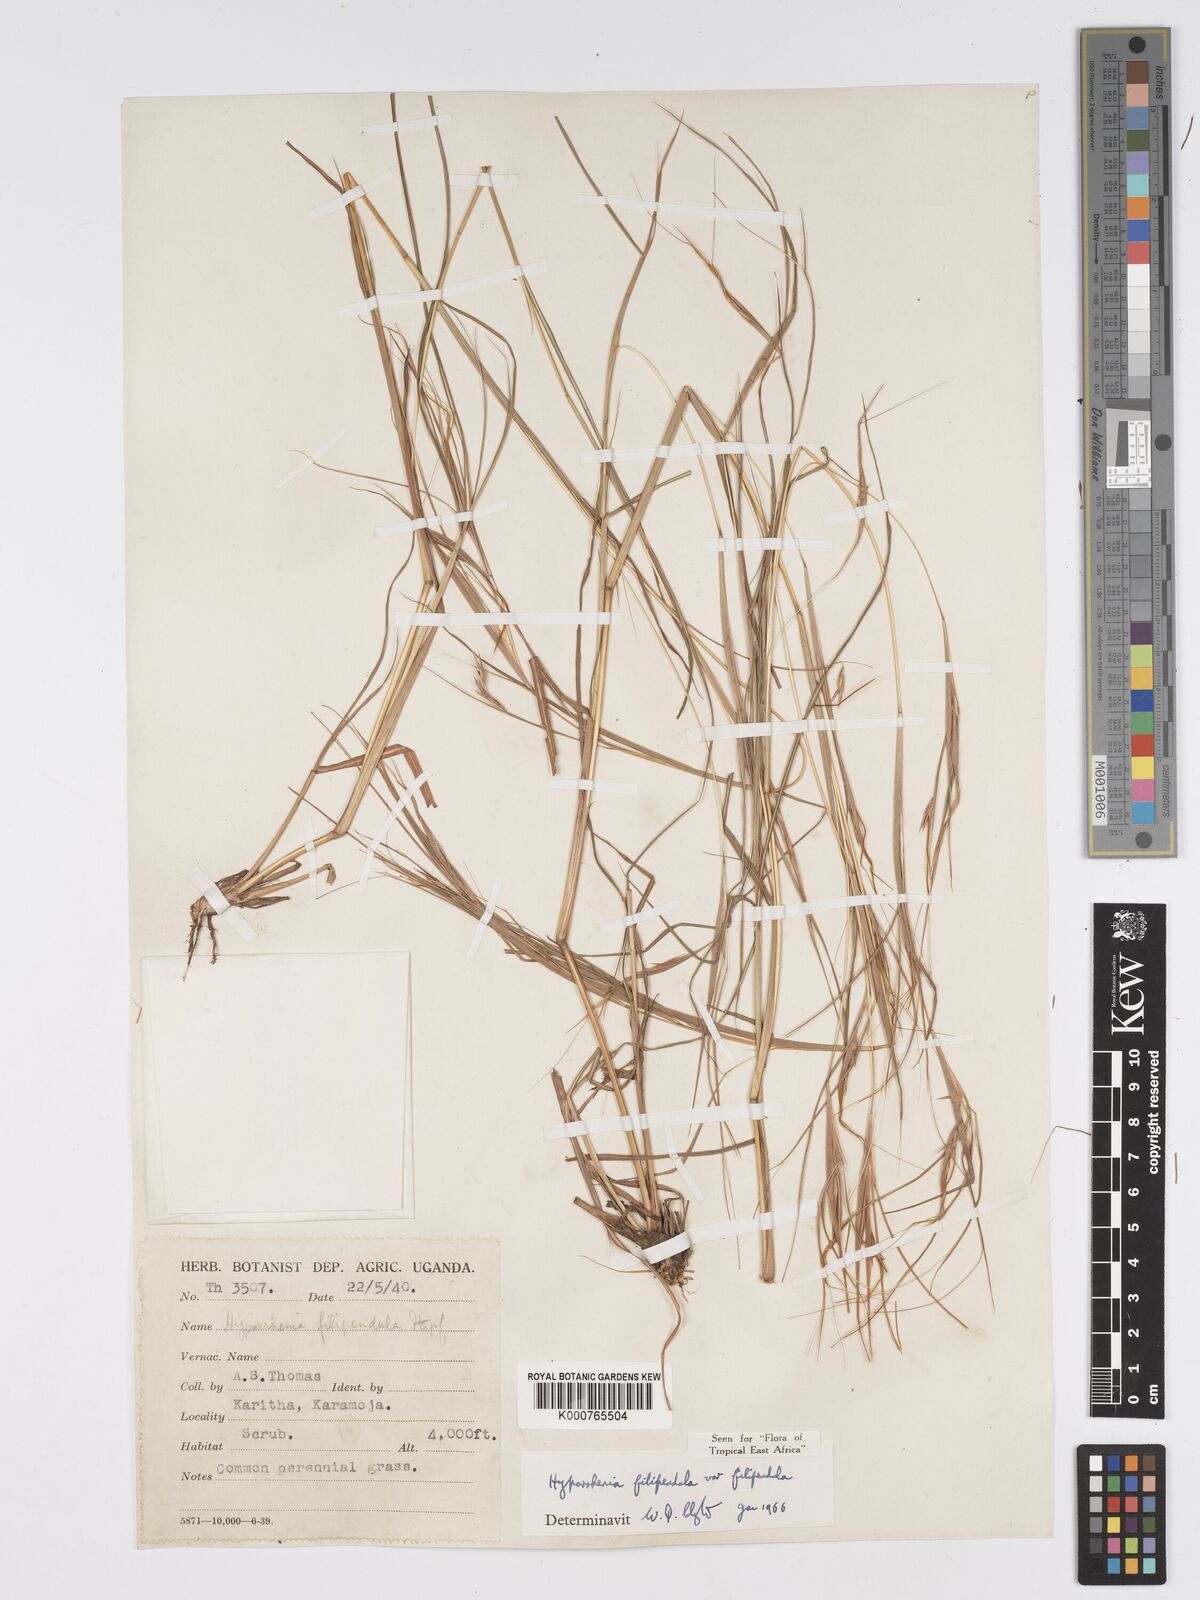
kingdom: Plantae
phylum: Tracheophyta
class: Liliopsida
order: Poales
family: Poaceae
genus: Hyparrhenia
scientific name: Hyparrhenia filipendula
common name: Tambookie grass
